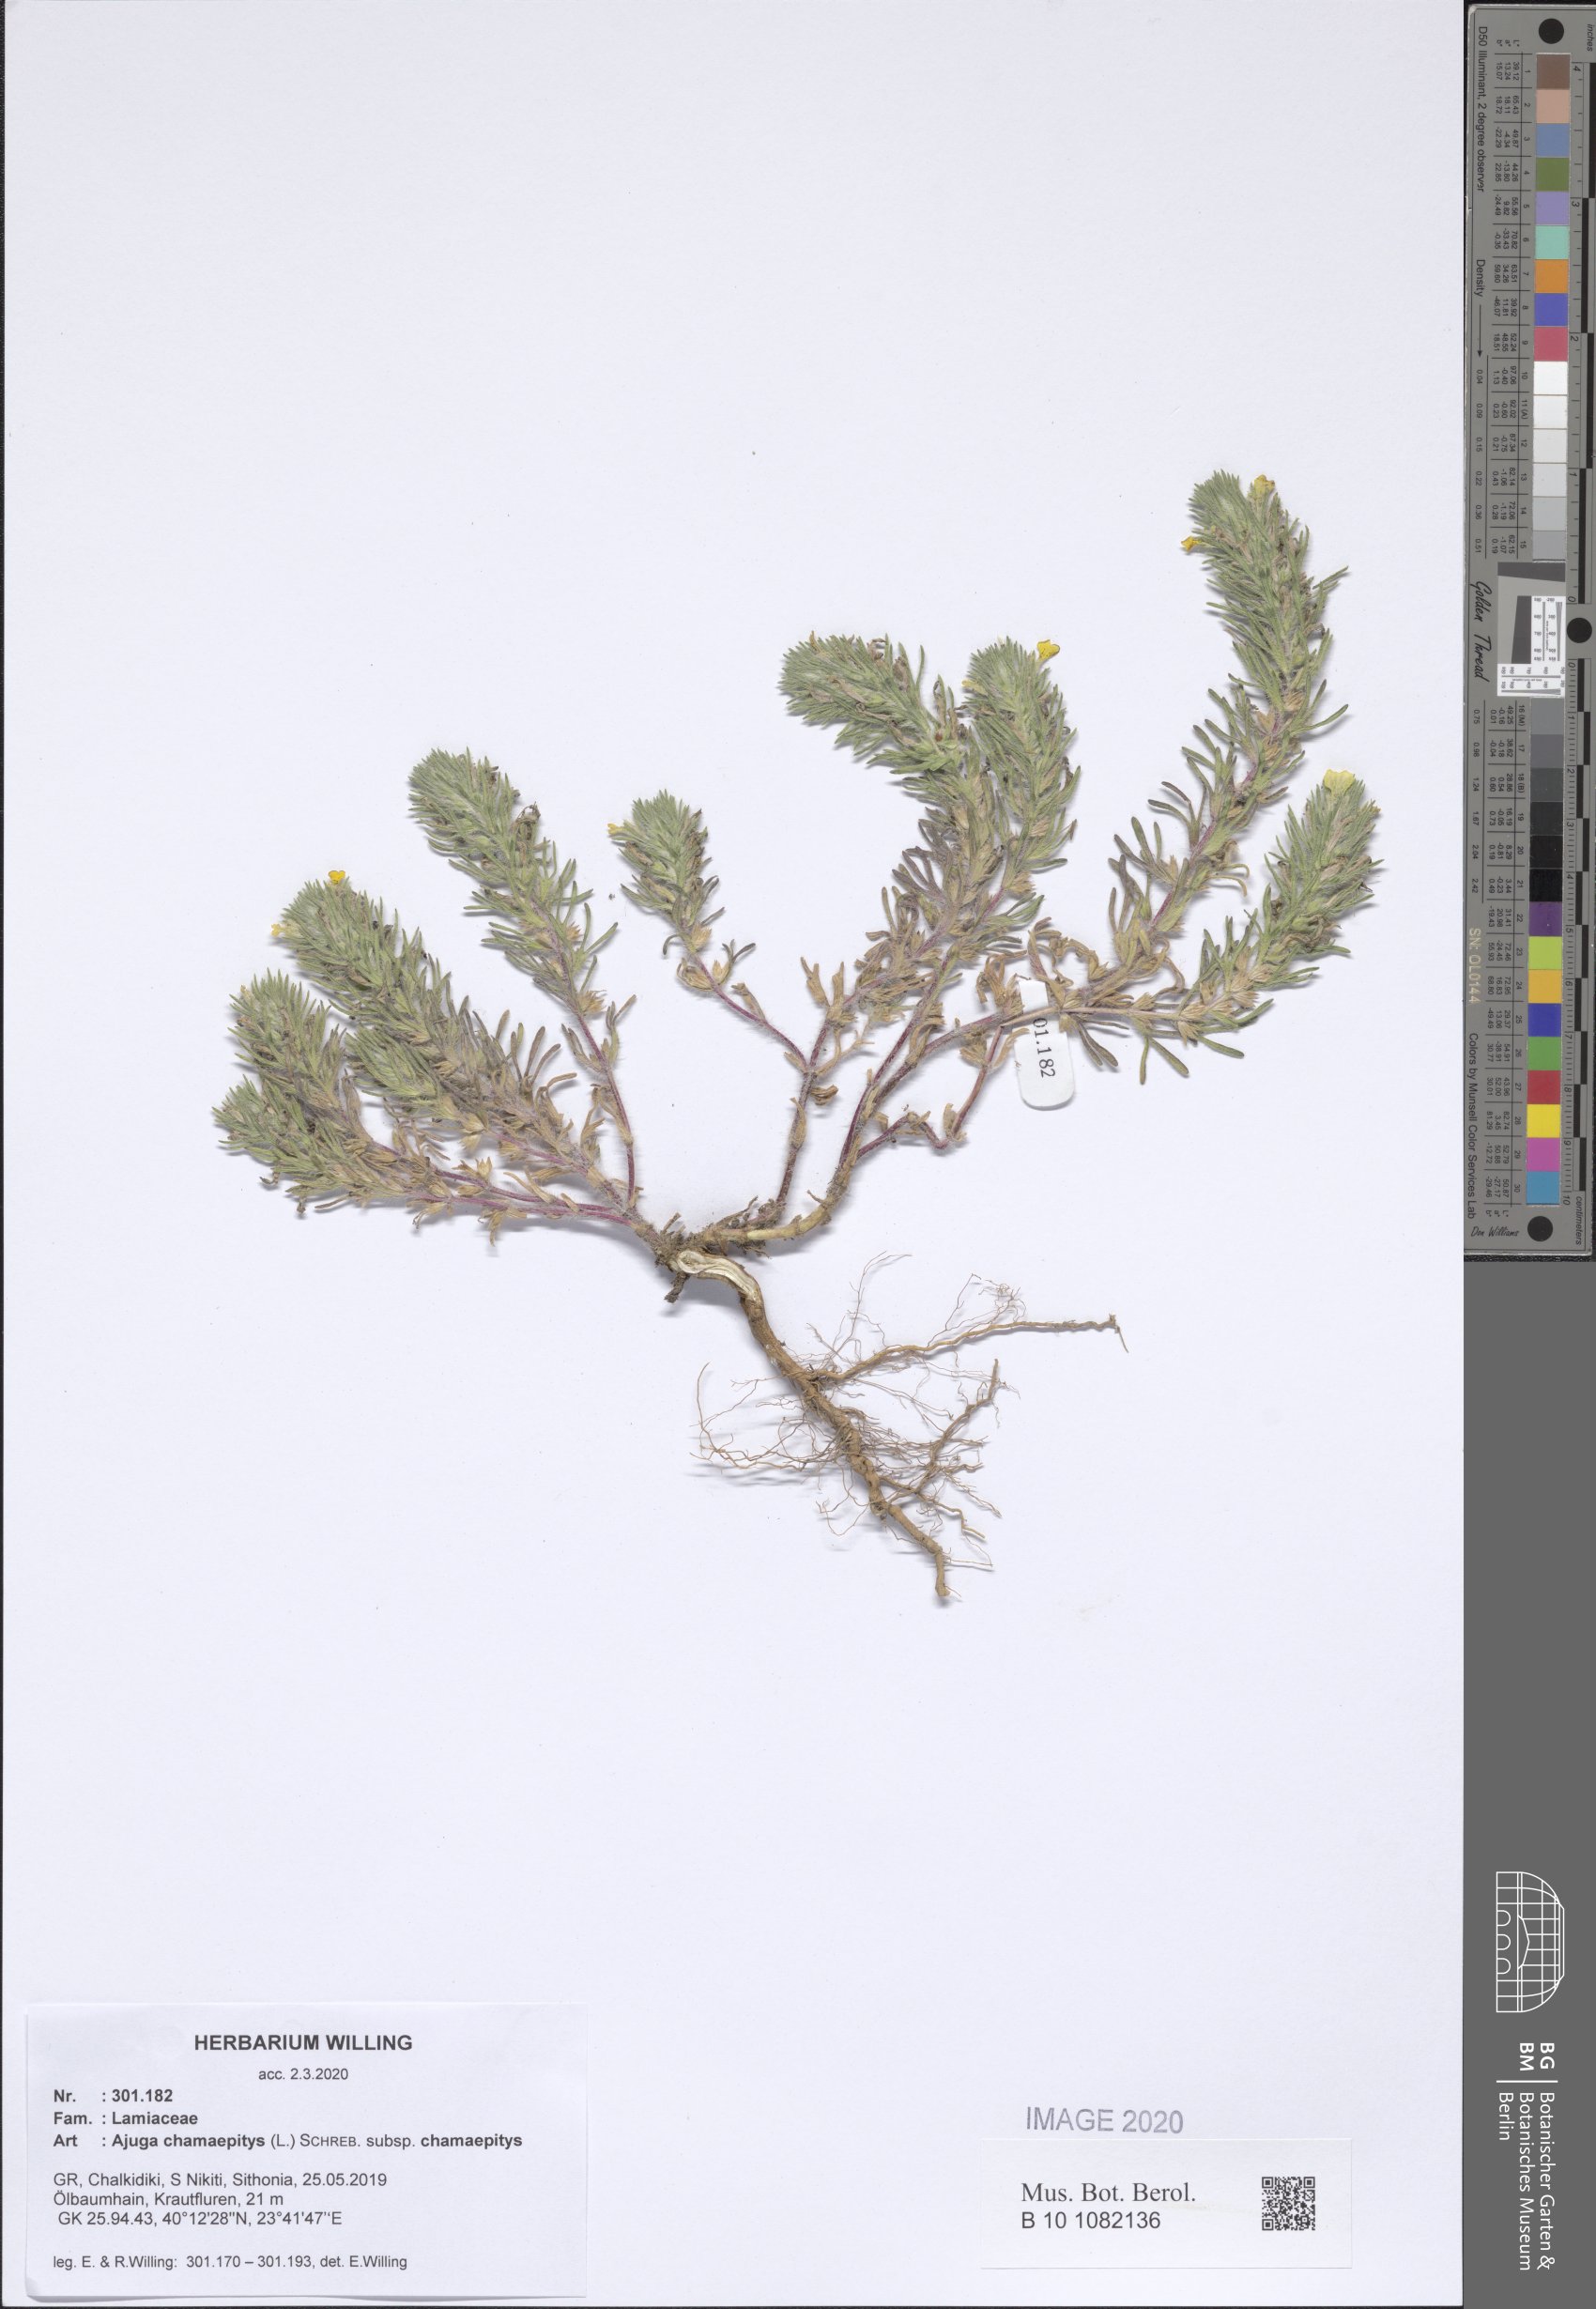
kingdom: Plantae
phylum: Tracheophyta
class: Magnoliopsida
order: Lamiales
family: Lamiaceae
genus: Ajuga
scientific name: Ajuga chamaepitys
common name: Ground-pine
